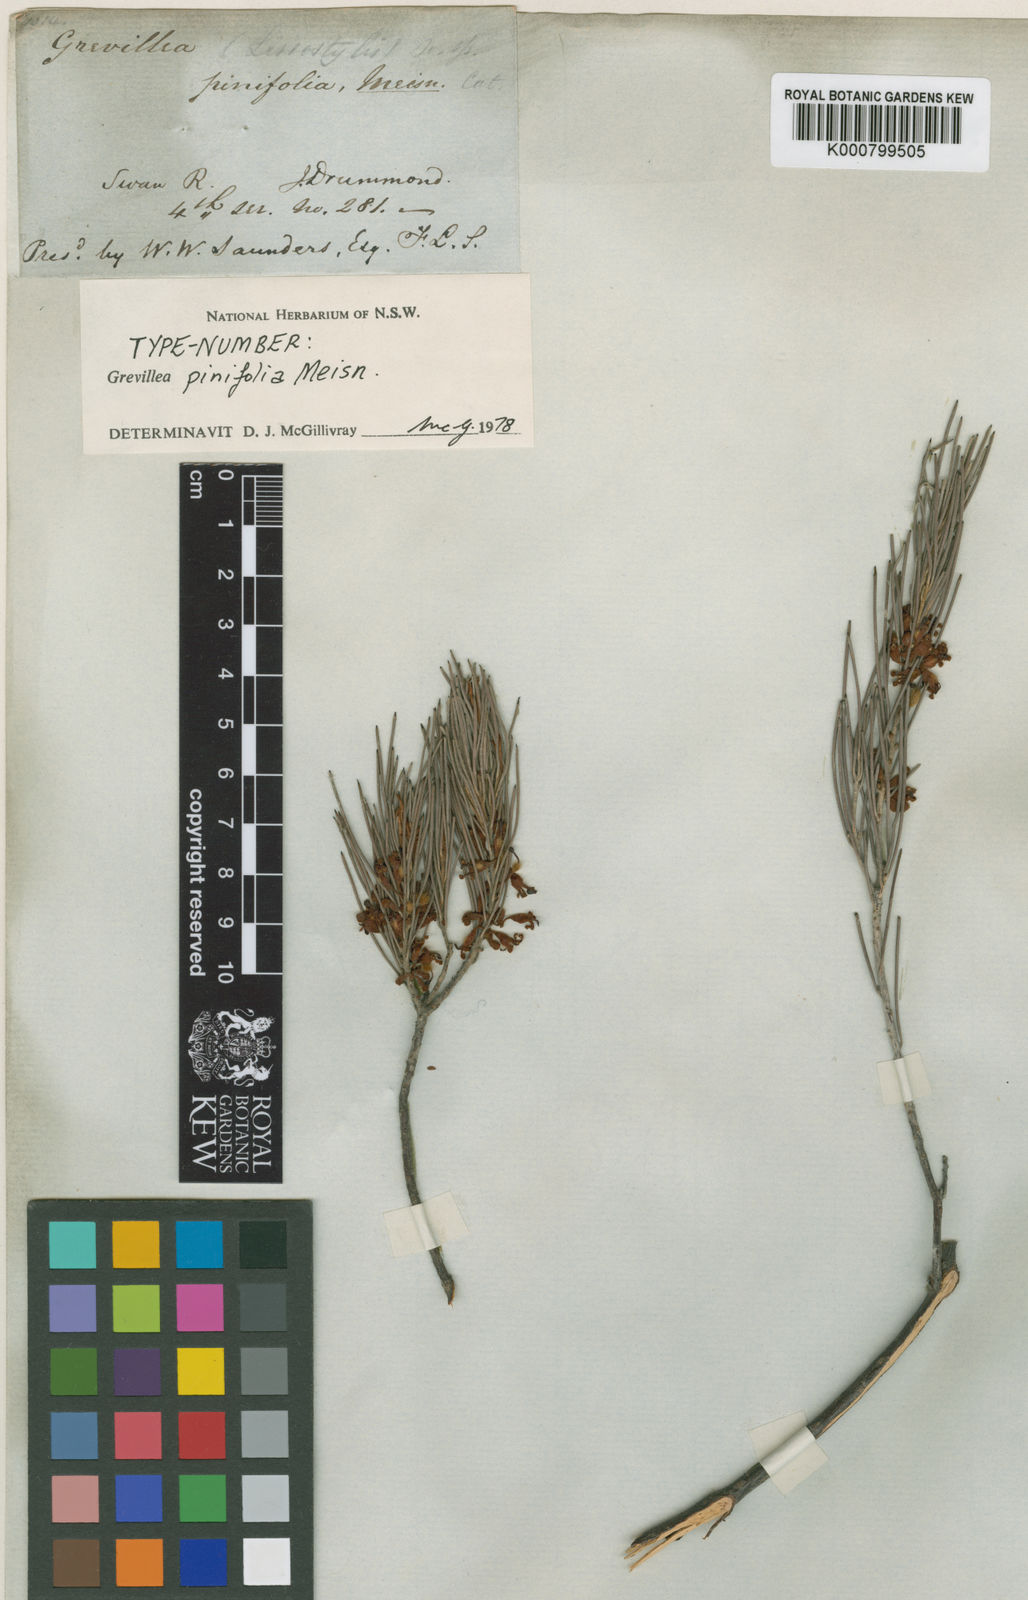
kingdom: Plantae
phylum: Tracheophyta
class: Magnoliopsida
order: Proteales
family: Proteaceae
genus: Grevillea
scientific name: Grevillea pinifolia
